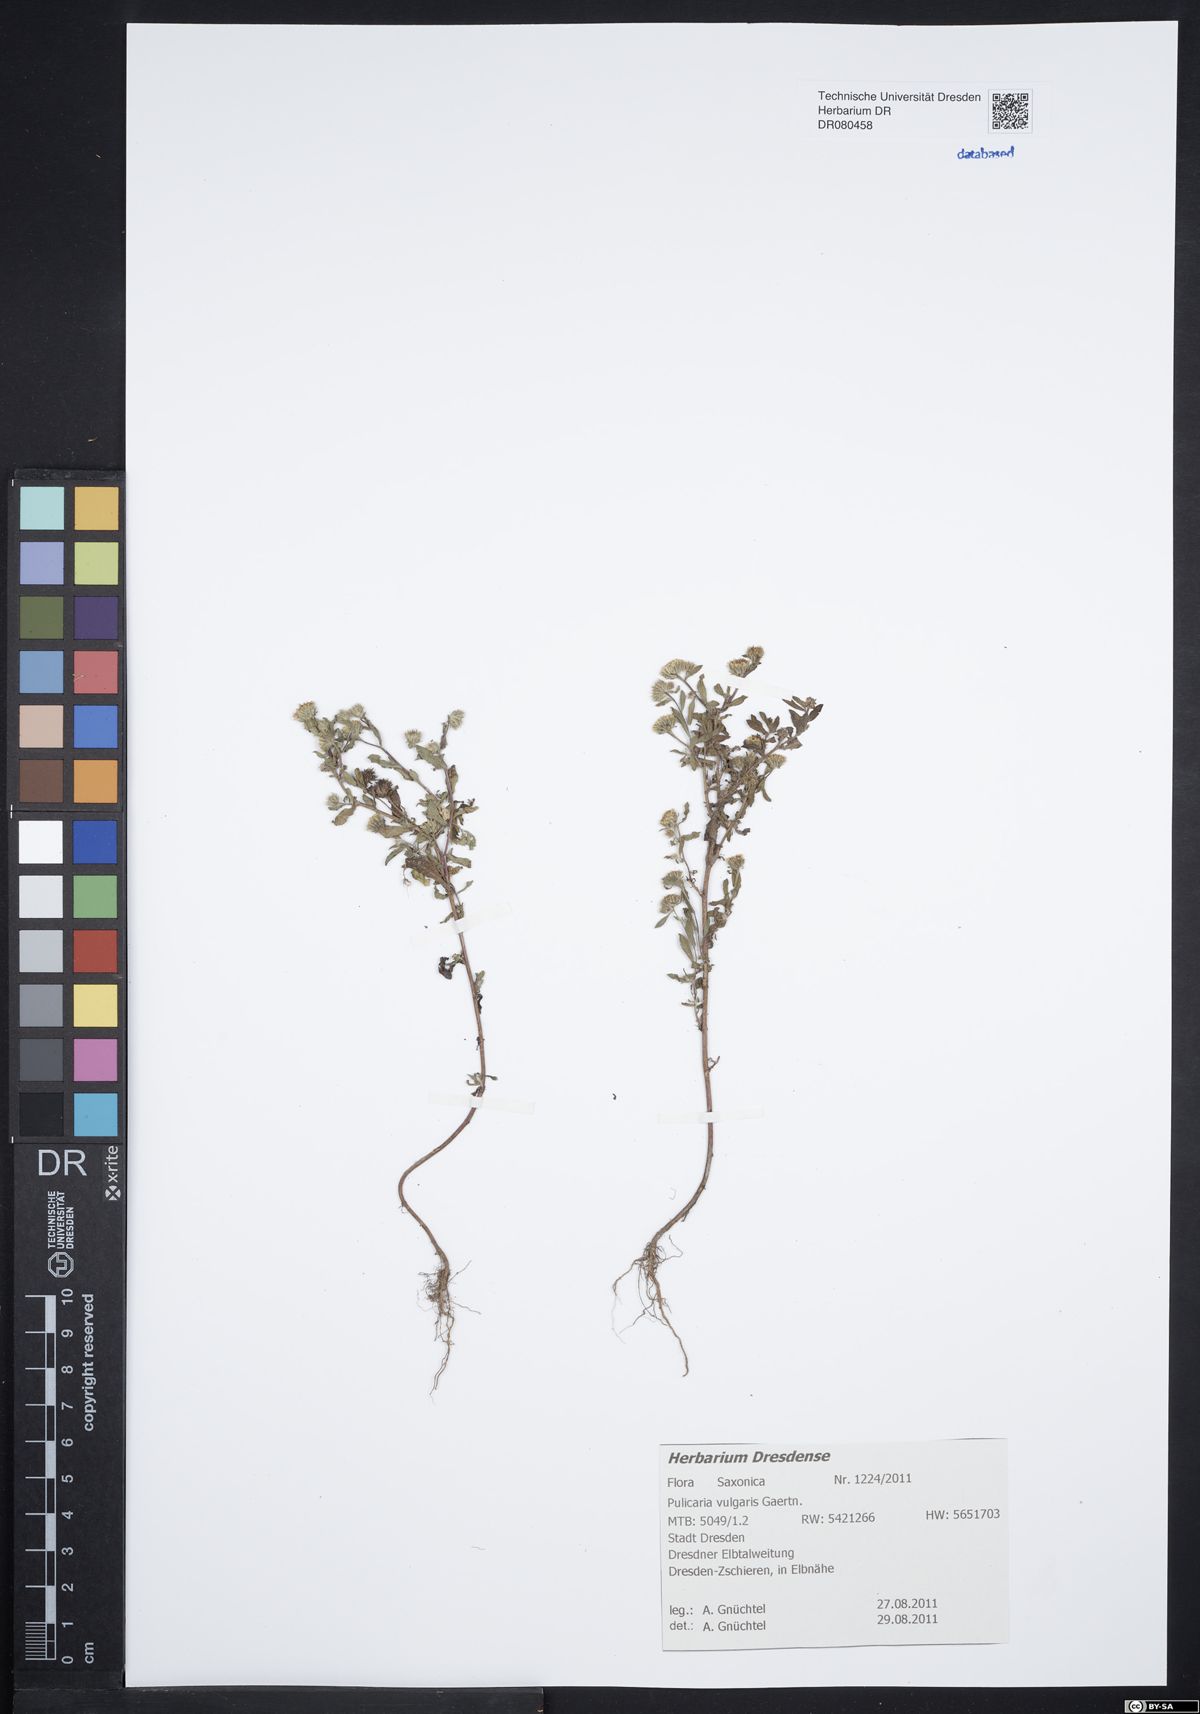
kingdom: Plantae
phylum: Tracheophyta
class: Magnoliopsida
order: Asterales
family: Asteraceae
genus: Pulicaria
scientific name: Pulicaria vulgaris
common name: Small fleabane
